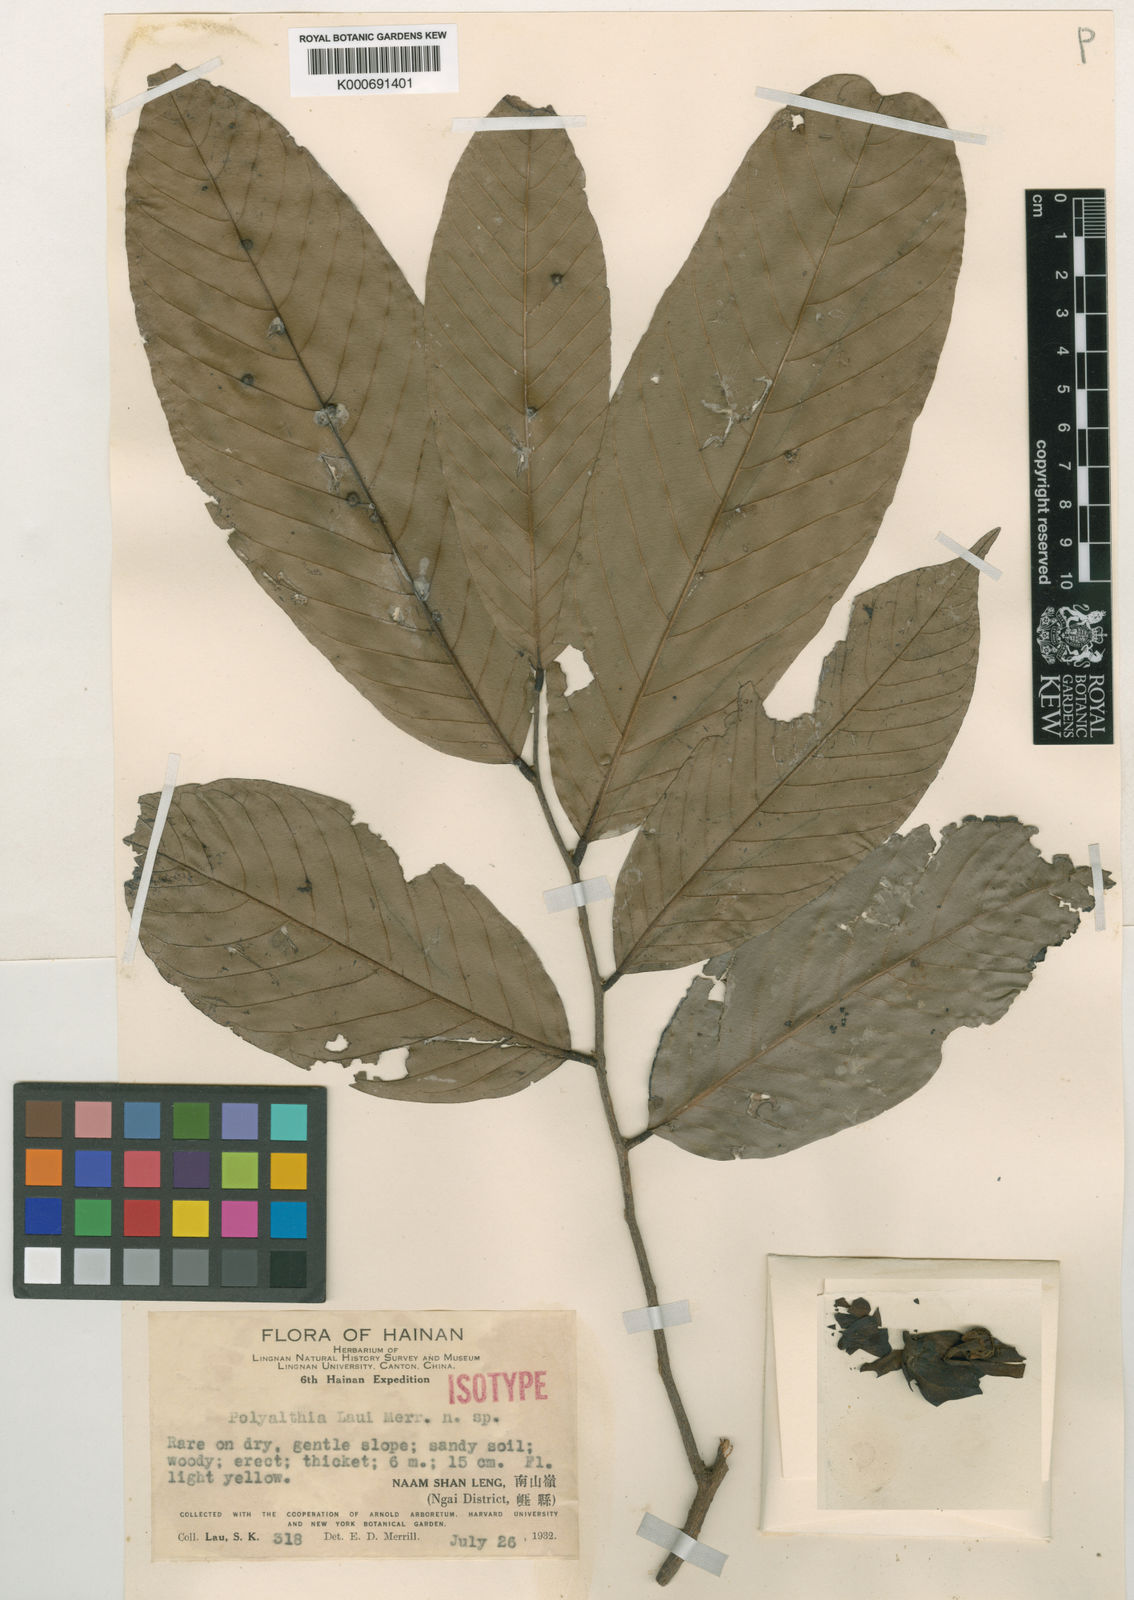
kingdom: Plantae
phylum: Tracheophyta
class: Magnoliopsida
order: Magnoliales
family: Annonaceae
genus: Polyalthia
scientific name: Polyalthia laui
